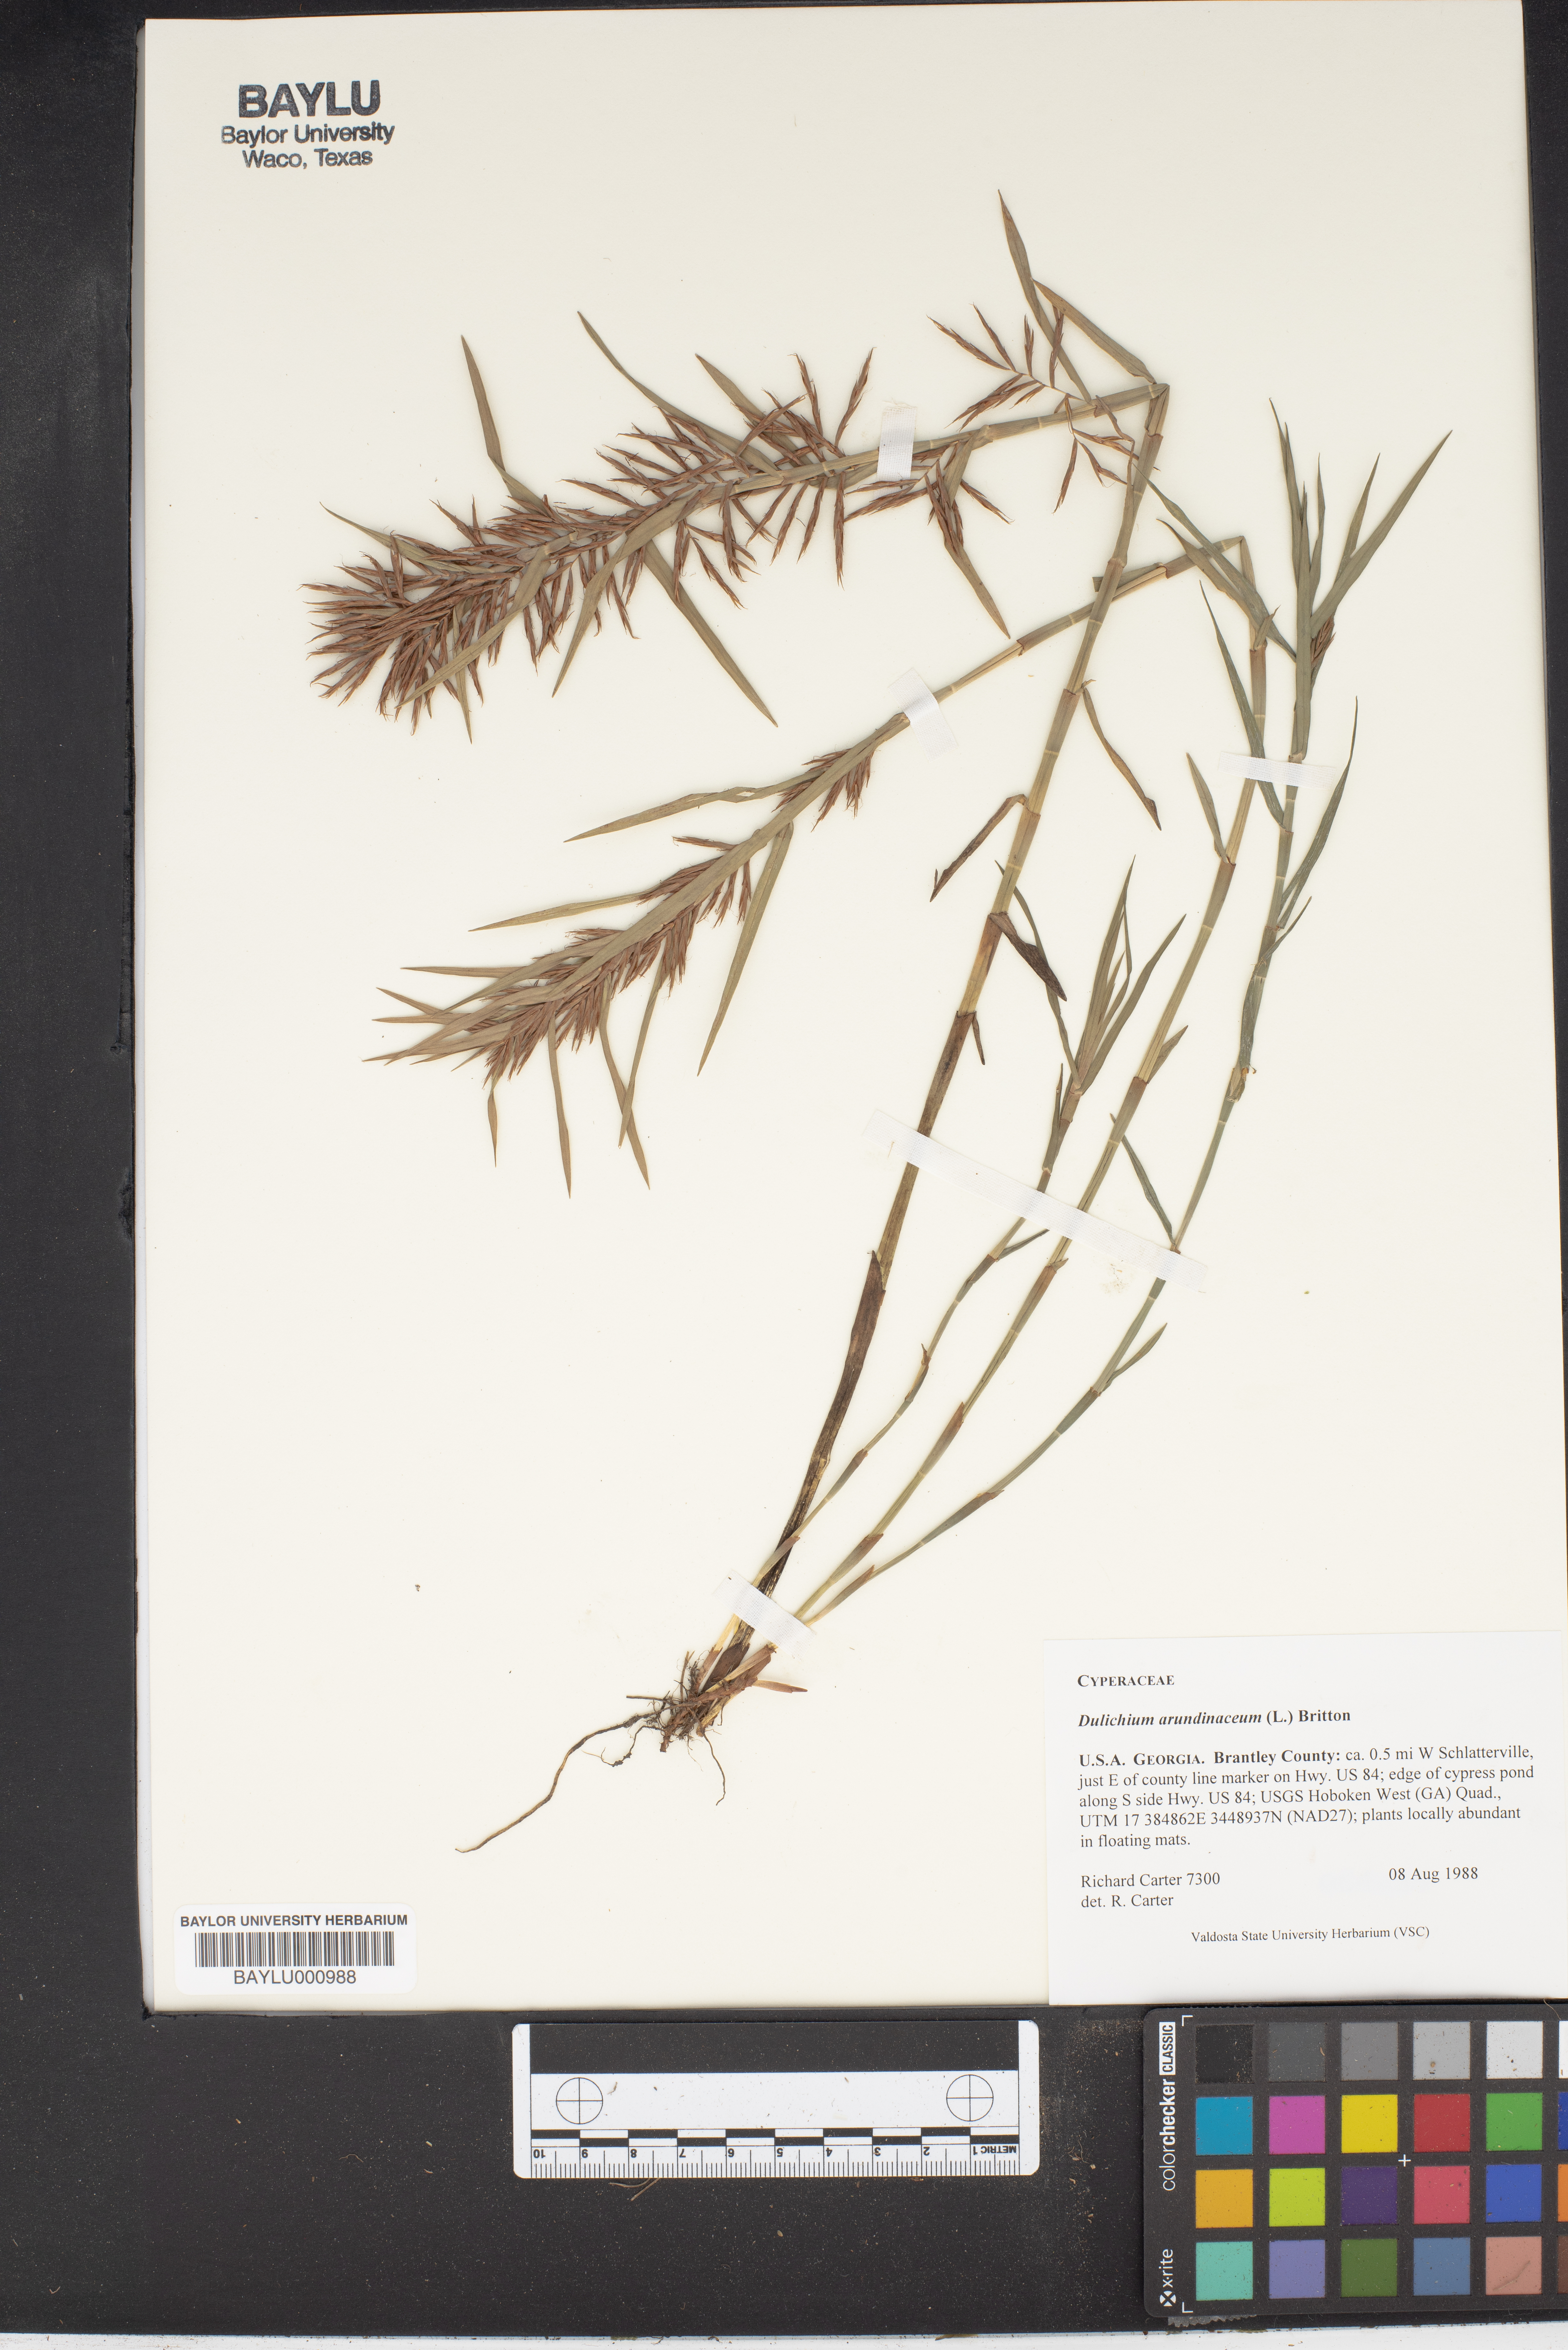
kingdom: Plantae
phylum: Tracheophyta
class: Liliopsida
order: Poales
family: Cyperaceae
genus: Dulichium
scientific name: Dulichium arundinaceum
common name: Three-way sedge
